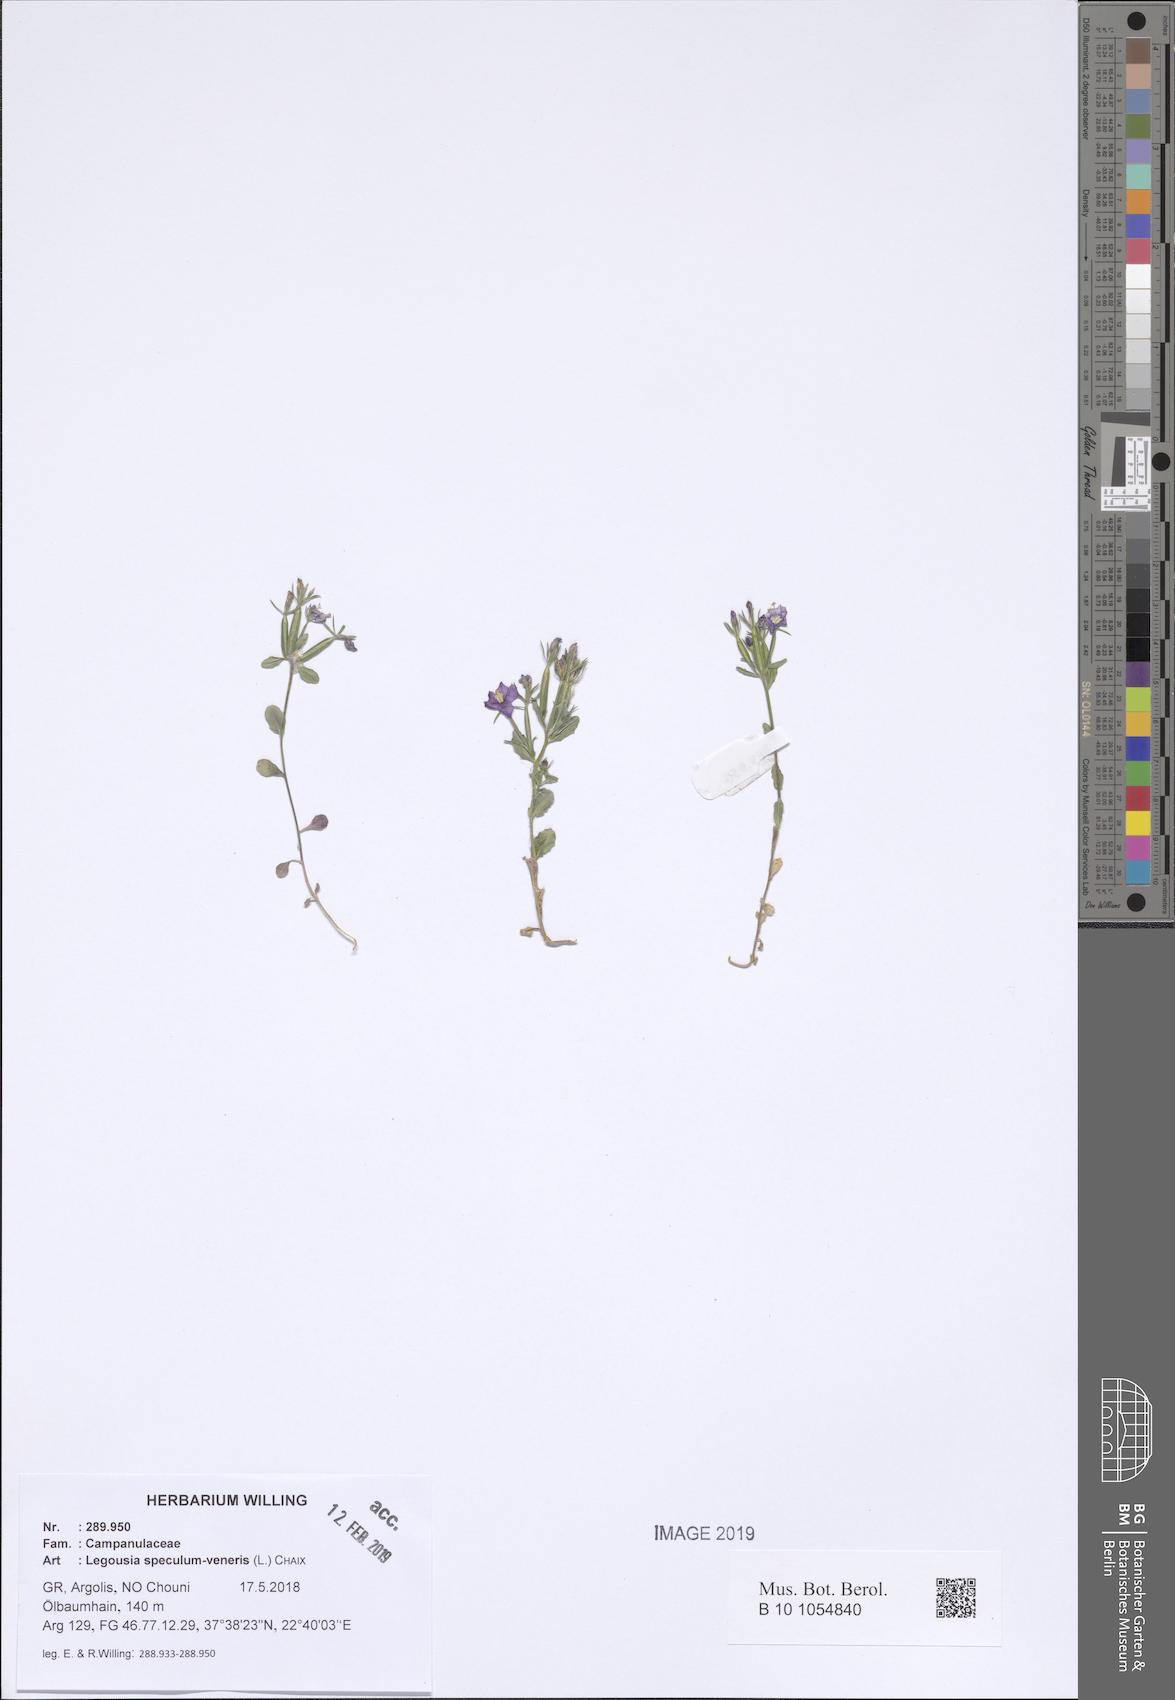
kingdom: Plantae
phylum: Tracheophyta
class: Magnoliopsida
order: Asterales
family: Campanulaceae
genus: Legousia
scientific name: Legousia speculum-veneris
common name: Large venus's-looking-glass
